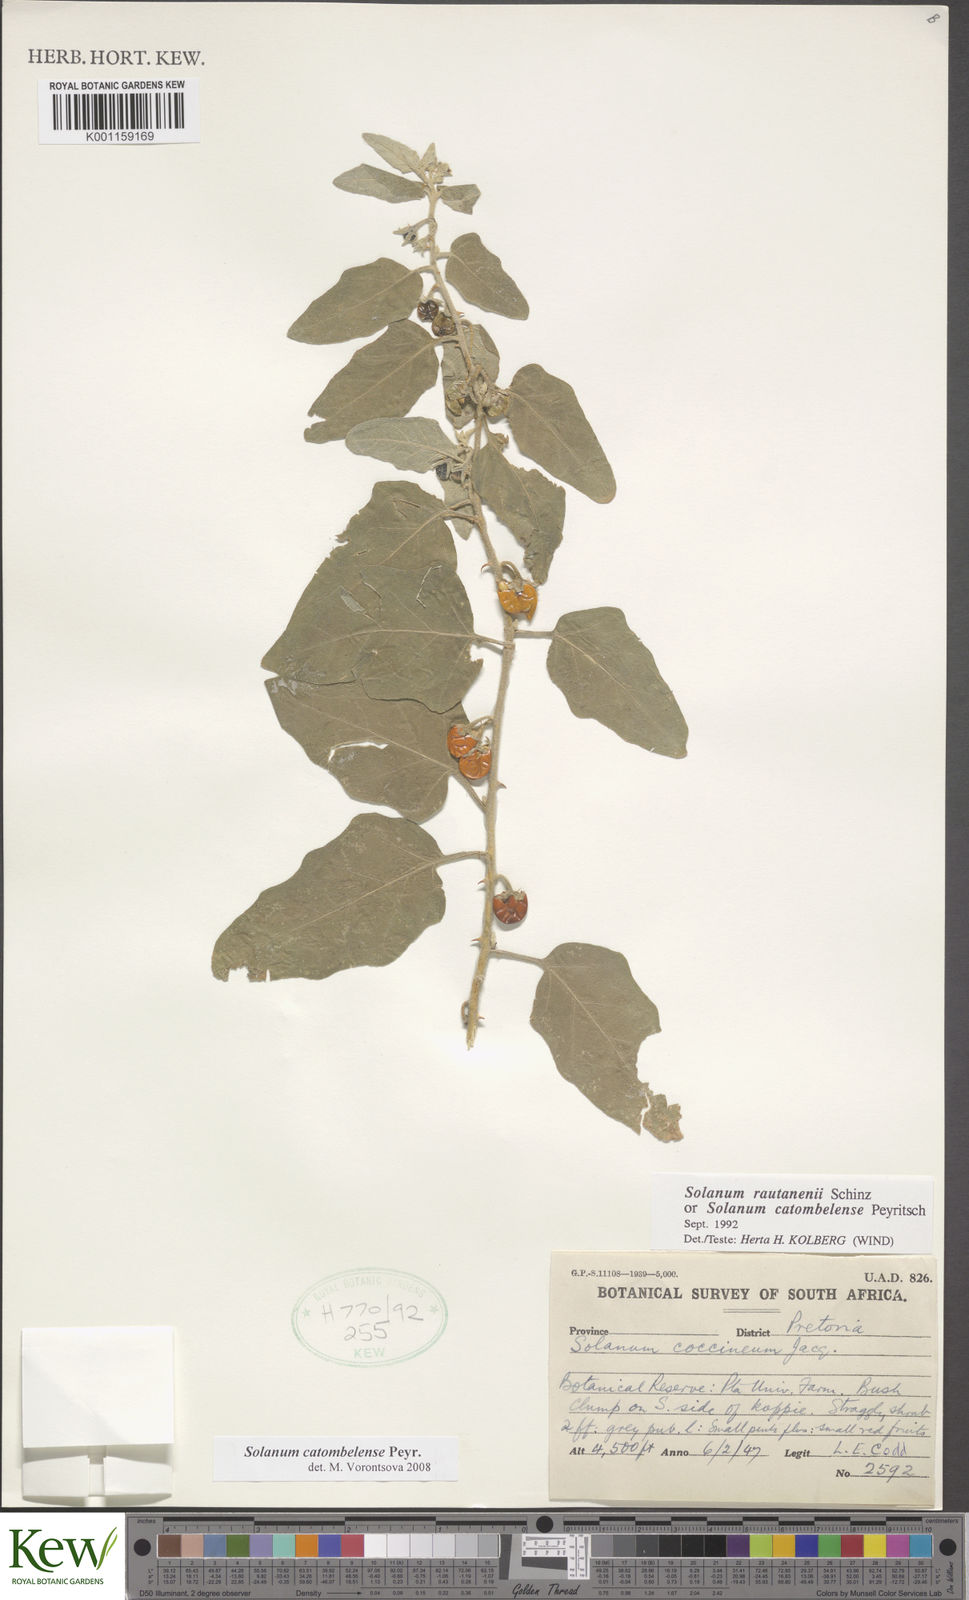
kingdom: Plantae
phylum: Tracheophyta
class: Magnoliopsida
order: Solanales
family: Solanaceae
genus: Solanum
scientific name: Solanum catombelense
